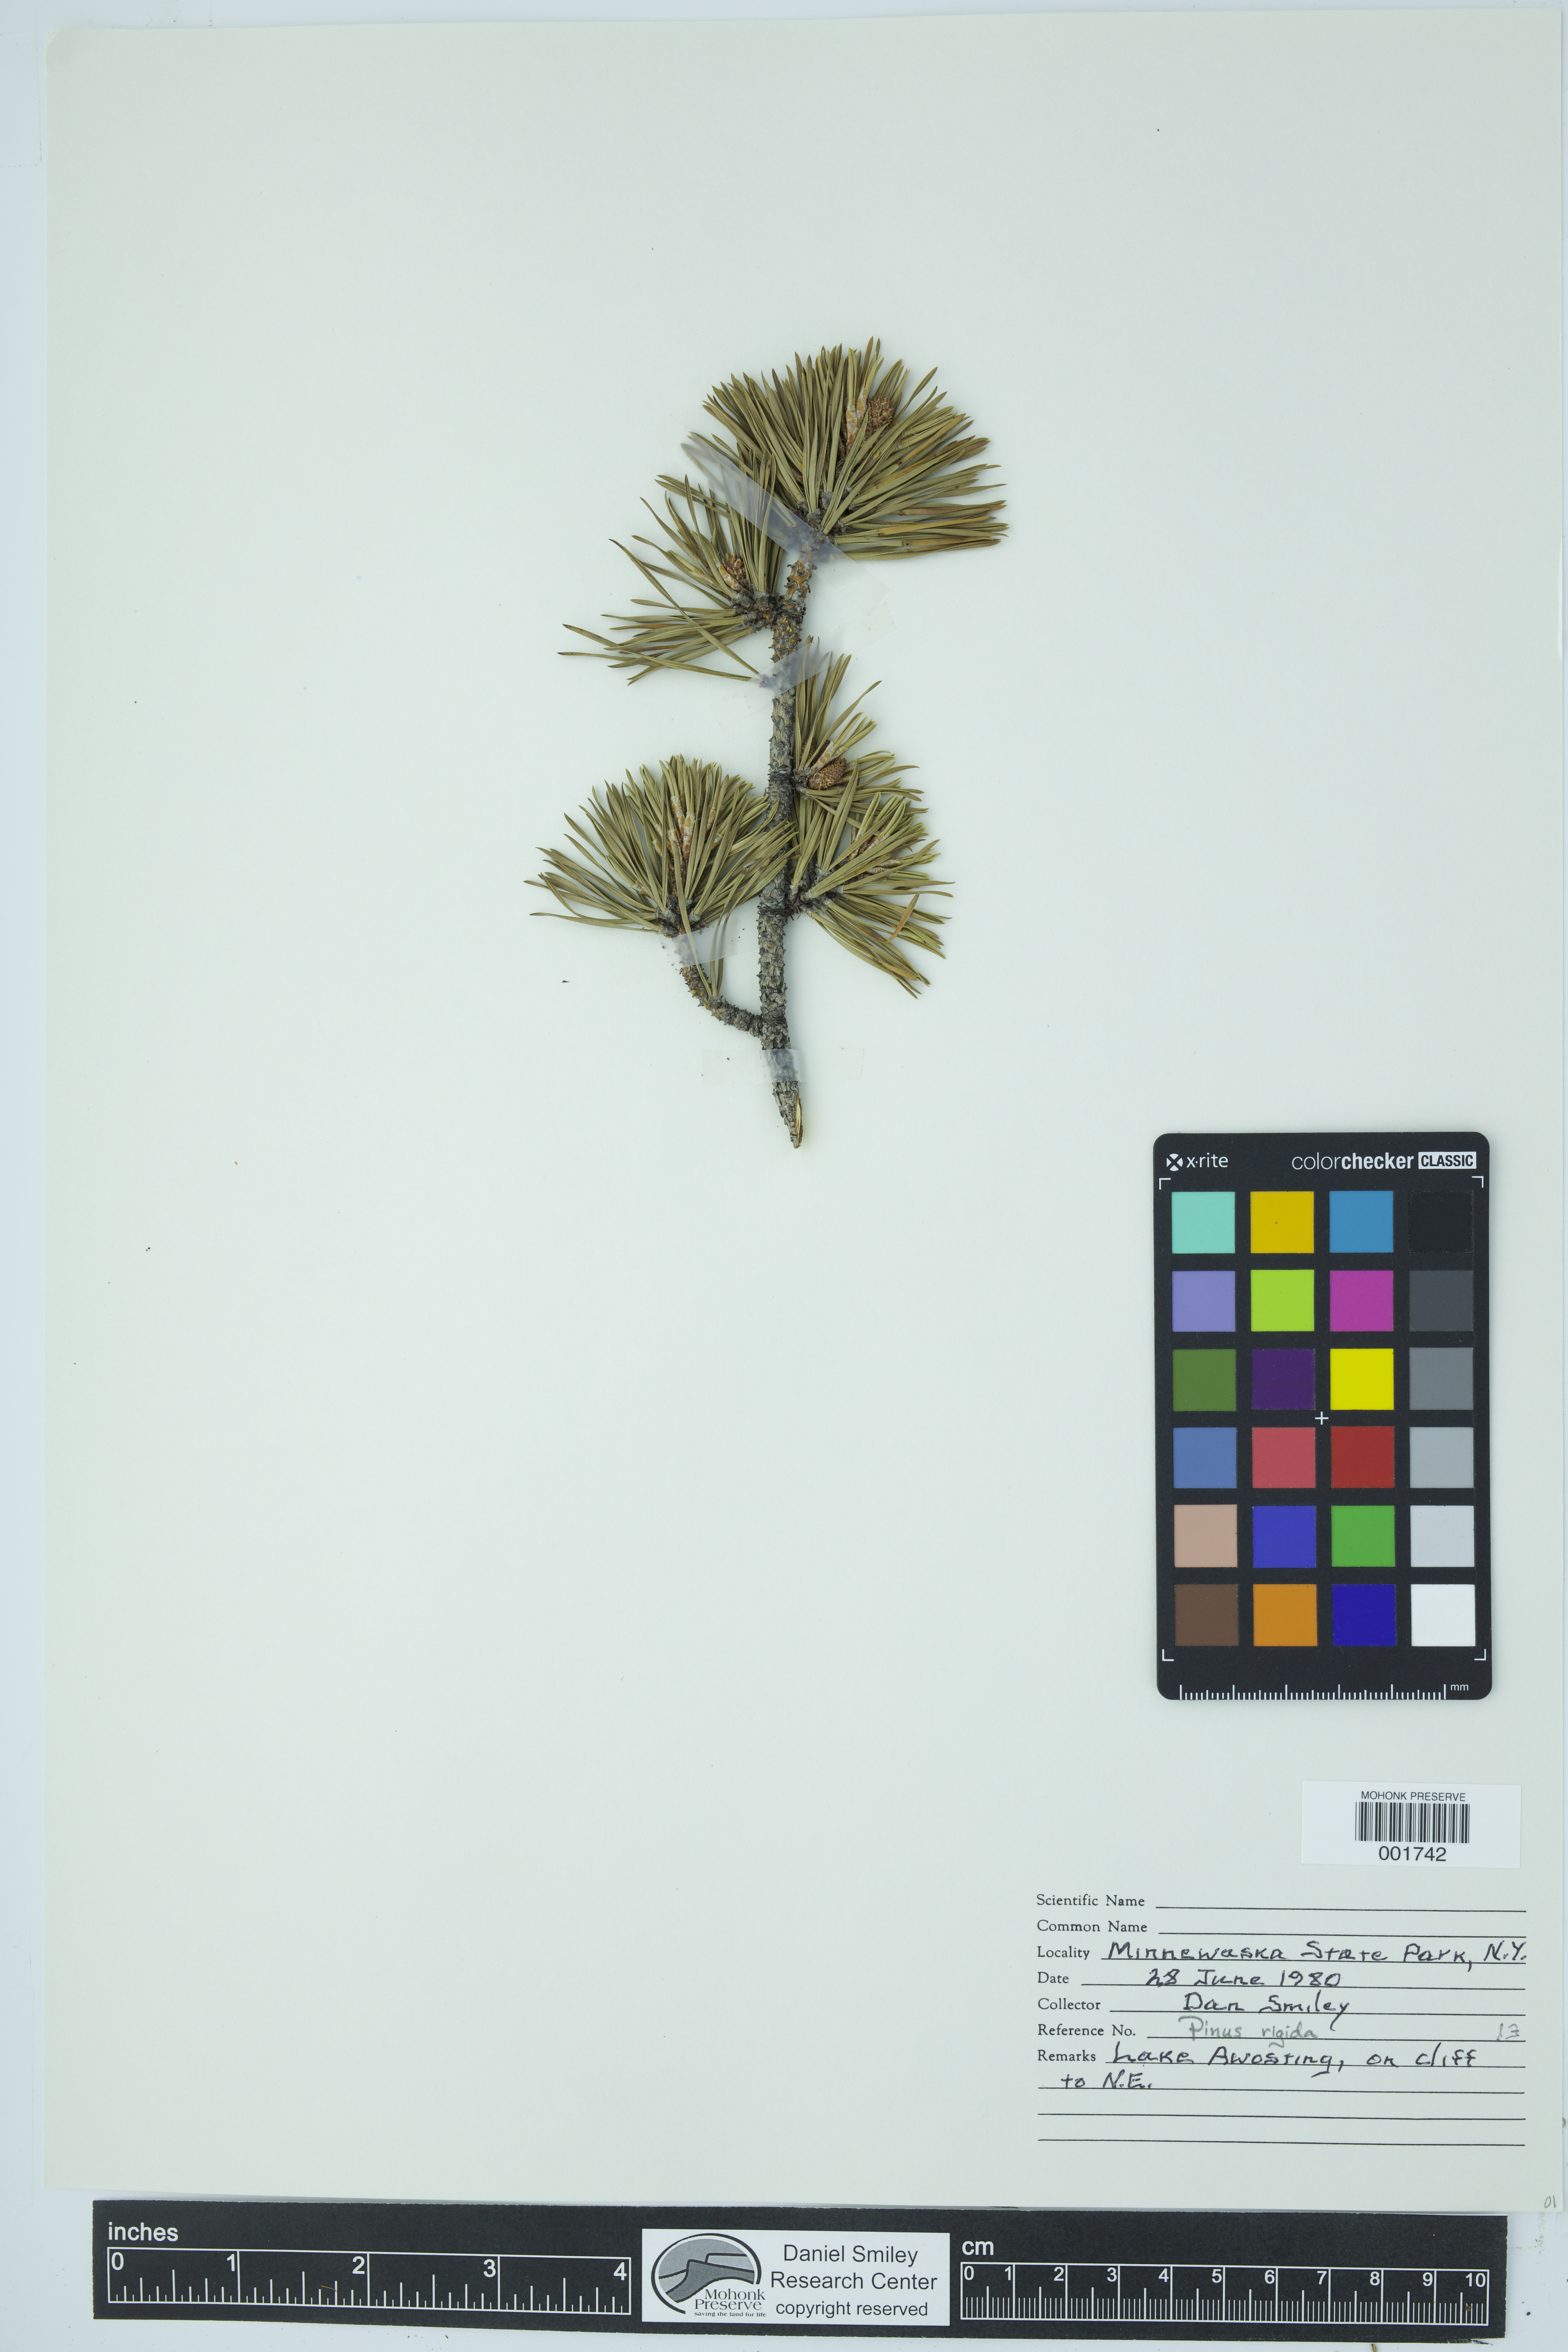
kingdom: Plantae
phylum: Tracheophyta
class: Pinopsida
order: Pinales
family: Pinaceae
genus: Pinus
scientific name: Pinus rigida
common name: Pitch pine
